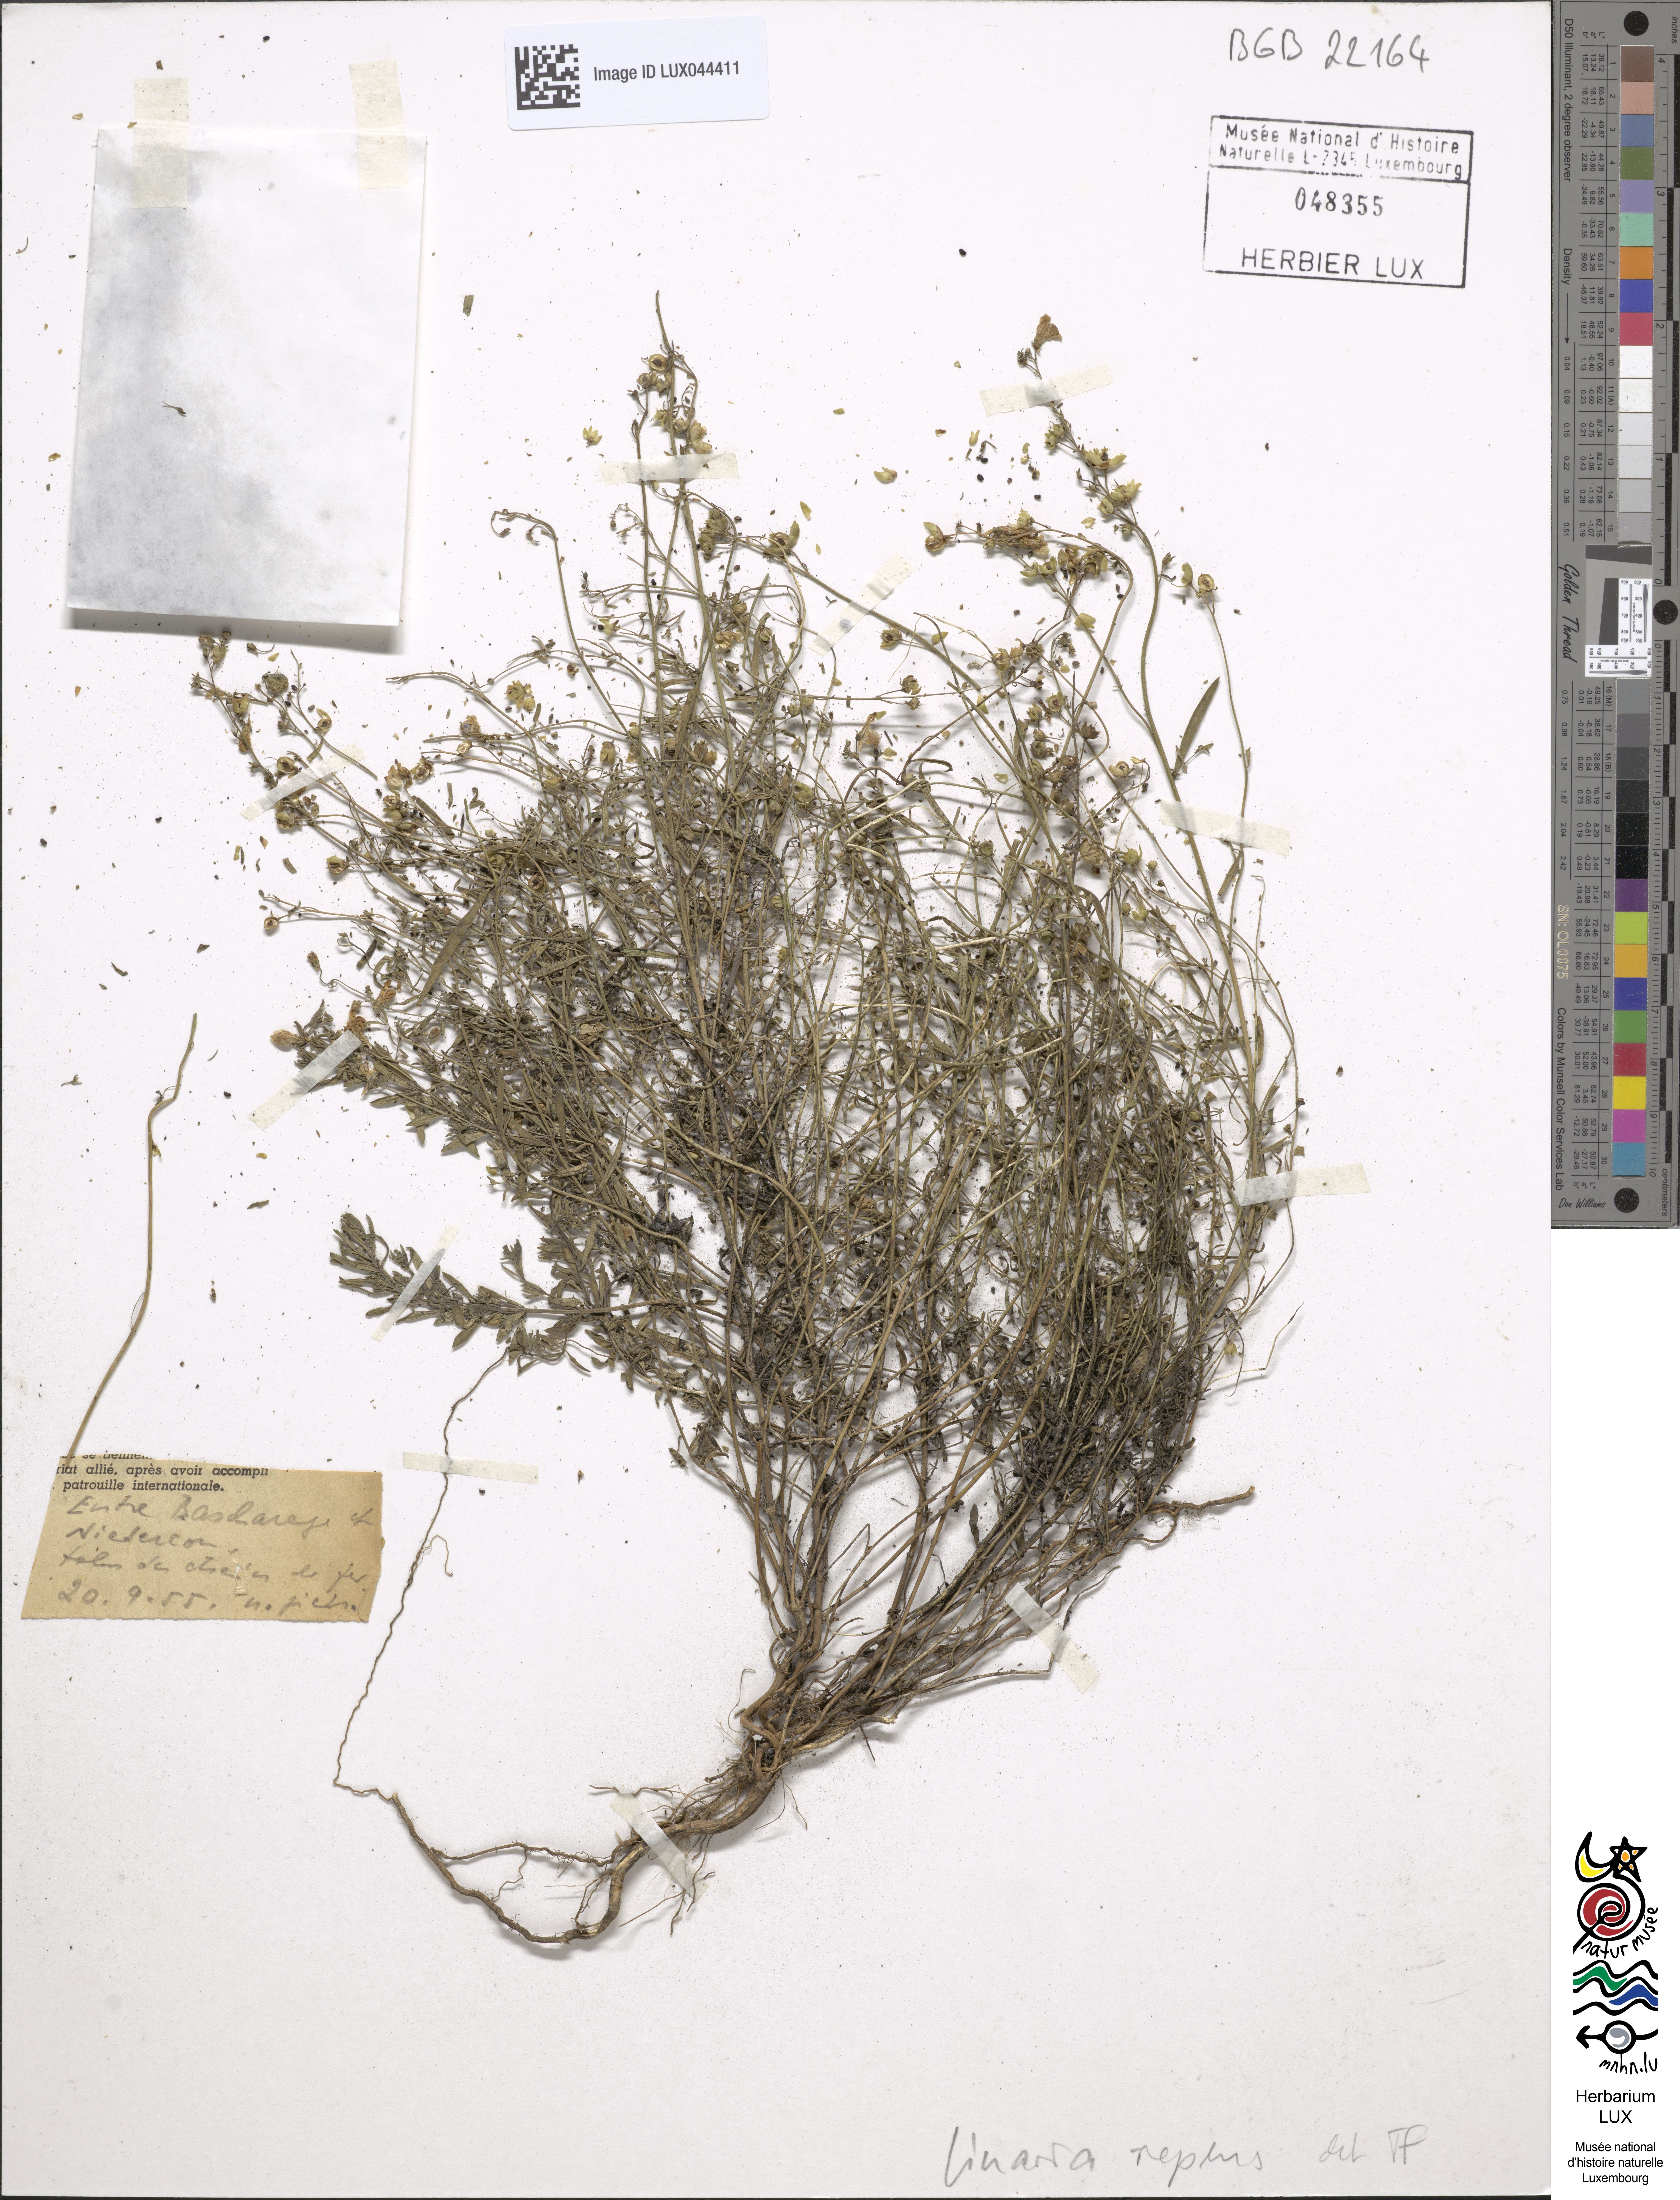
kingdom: Plantae
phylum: Tracheophyta
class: Magnoliopsida
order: Lamiales
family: Plantaginaceae
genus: Linaria
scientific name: Linaria repens
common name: Pale toadflax
